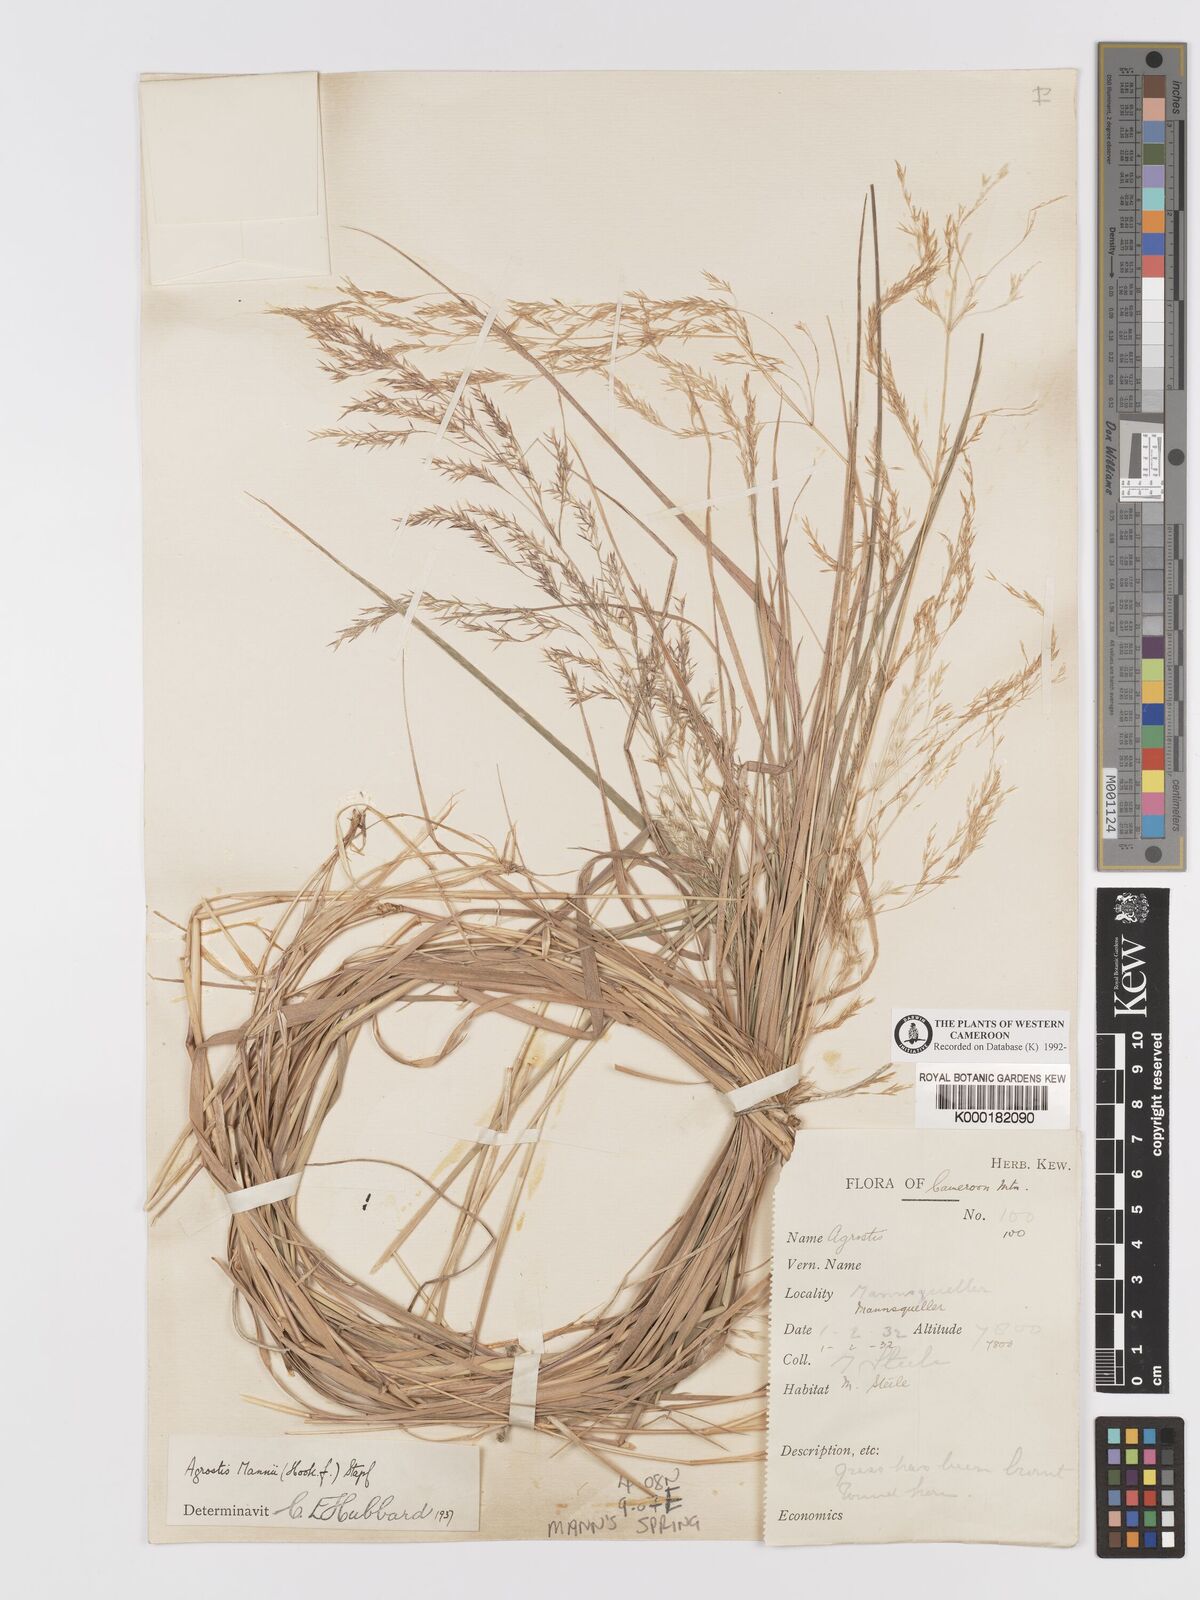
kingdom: Plantae
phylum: Tracheophyta
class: Liliopsida
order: Poales
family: Poaceae
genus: Agrostis
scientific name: Agrostis mannii
